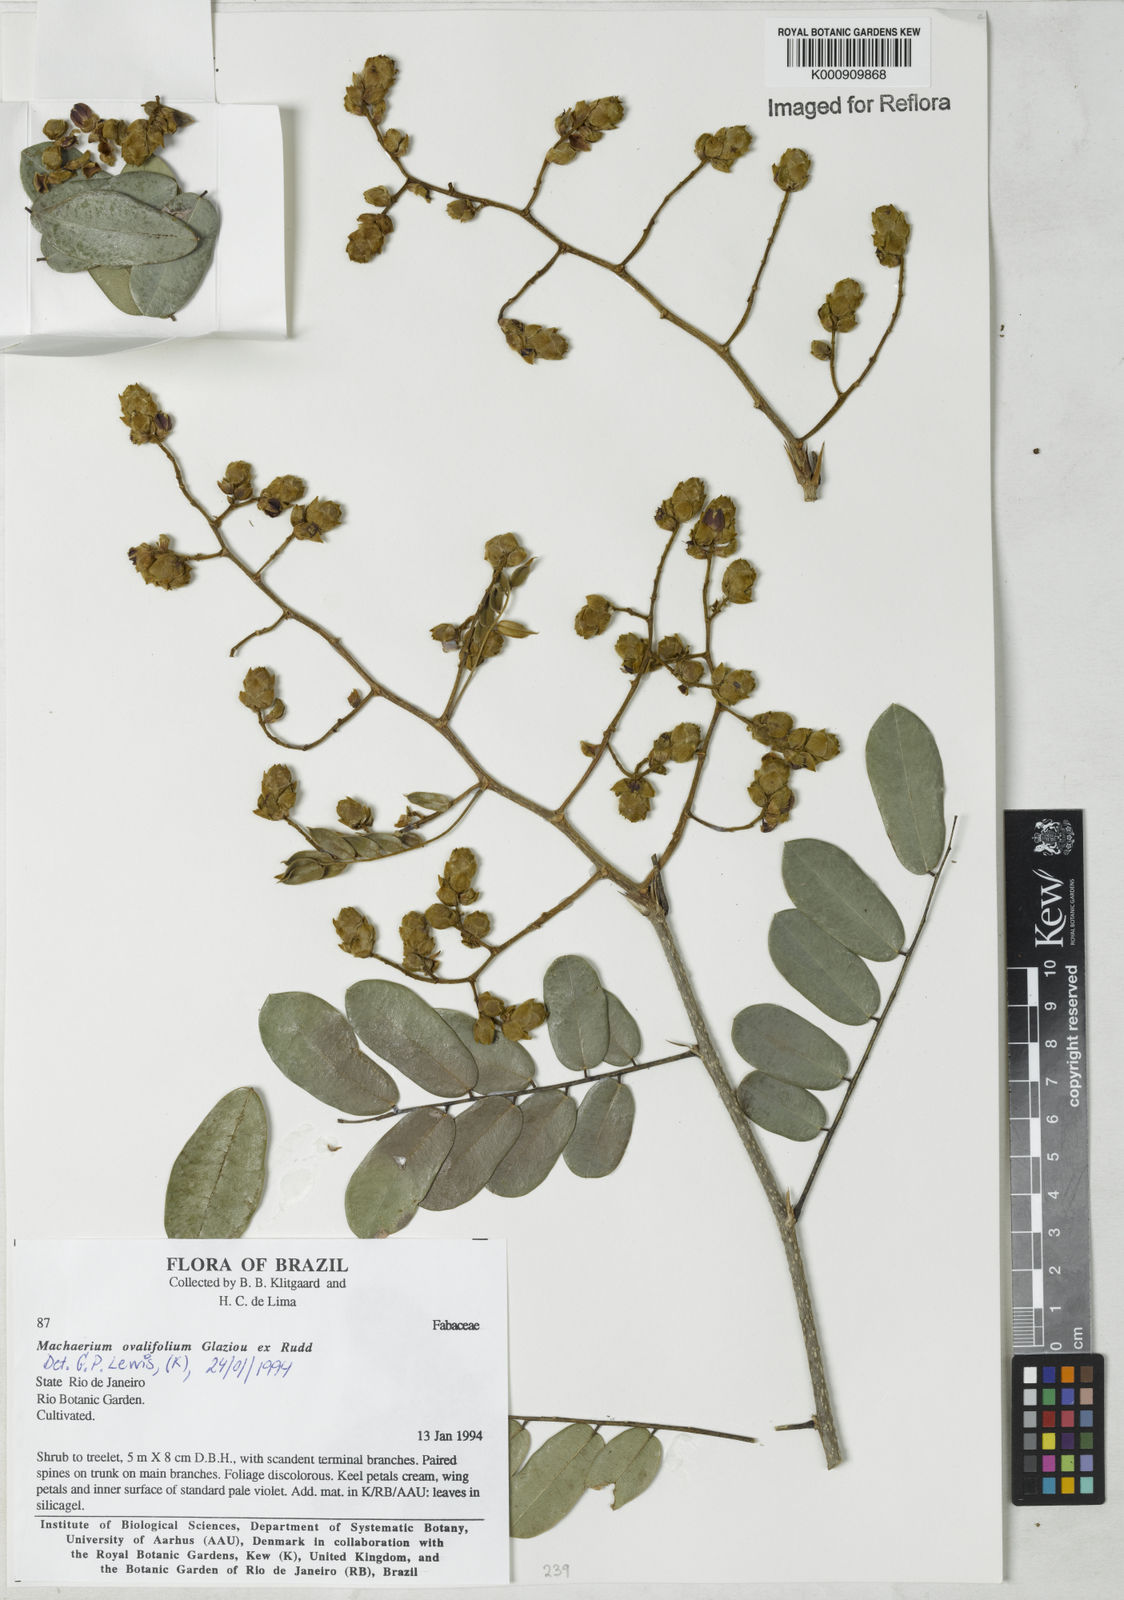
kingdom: Plantae
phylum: Tracheophyta
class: Magnoliopsida
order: Fabales
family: Fabaceae
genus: Machaerium
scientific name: Machaerium ovalifolium
